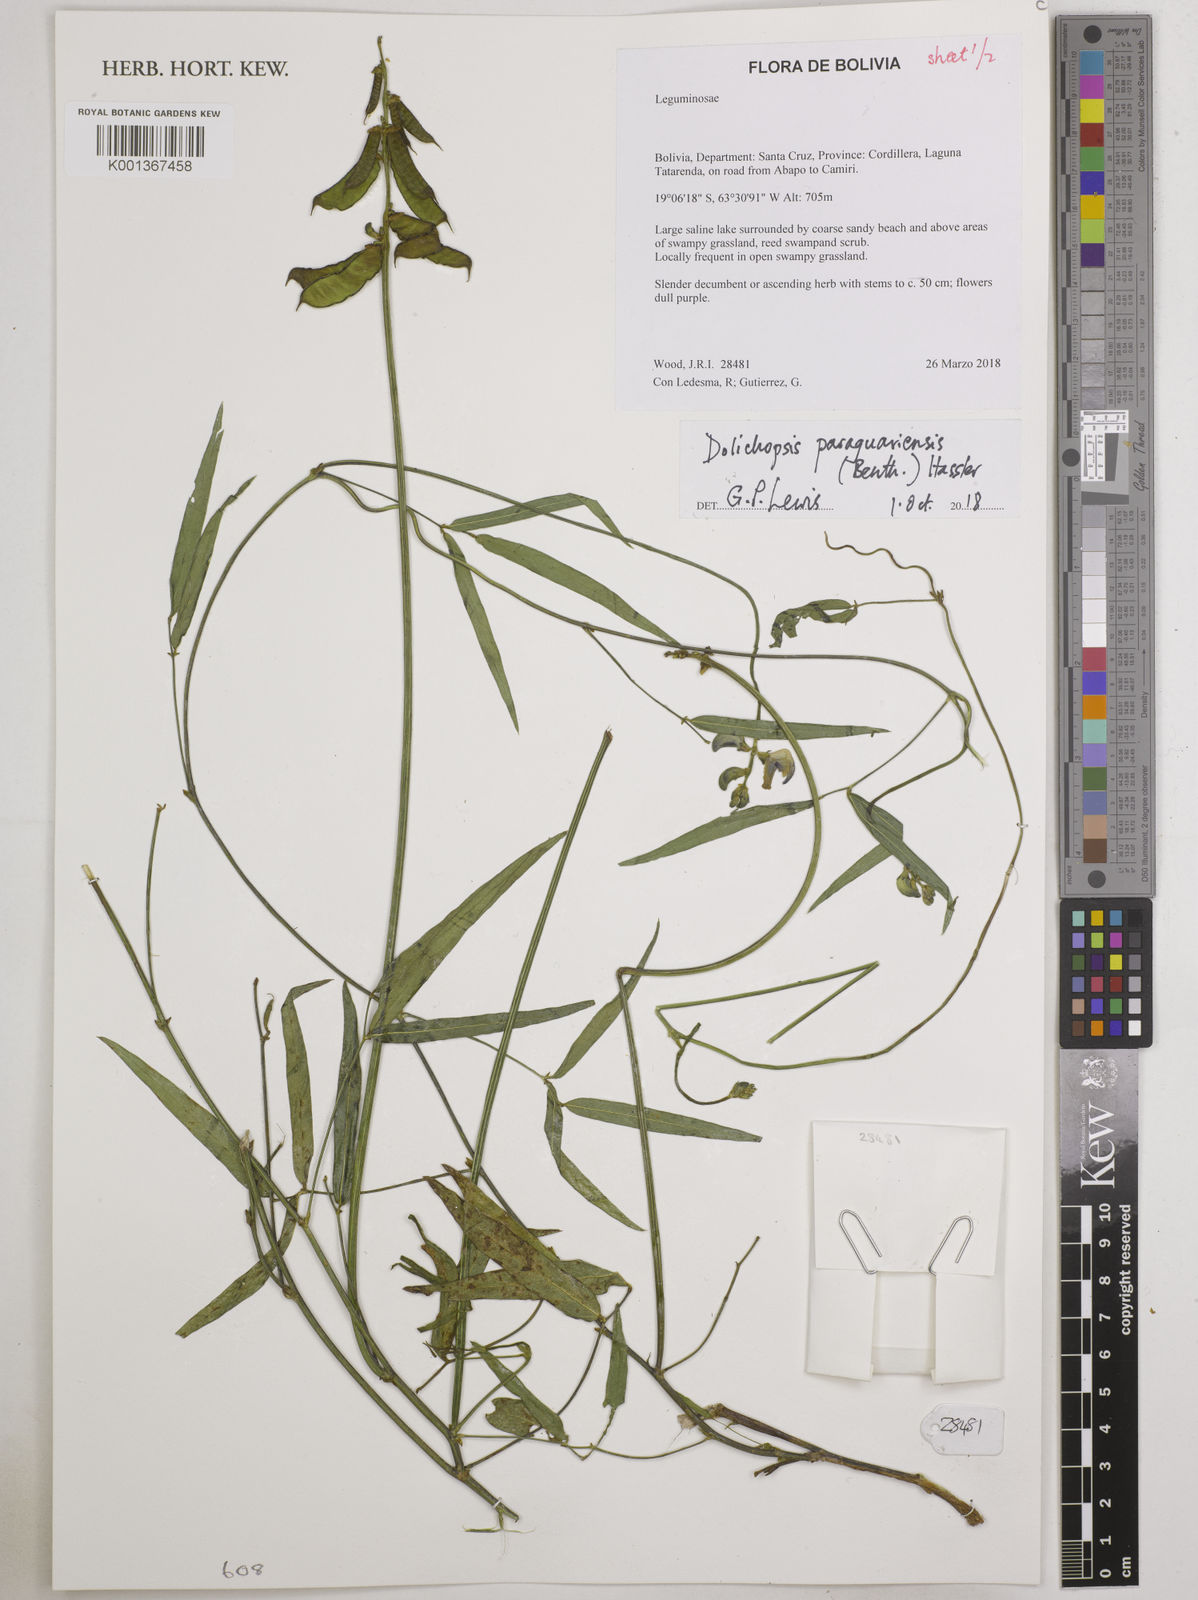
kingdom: Plantae
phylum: Tracheophyta
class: Magnoliopsida
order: Fabales
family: Fabaceae
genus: Dolichopsis
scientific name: Dolichopsis paraguariensis
